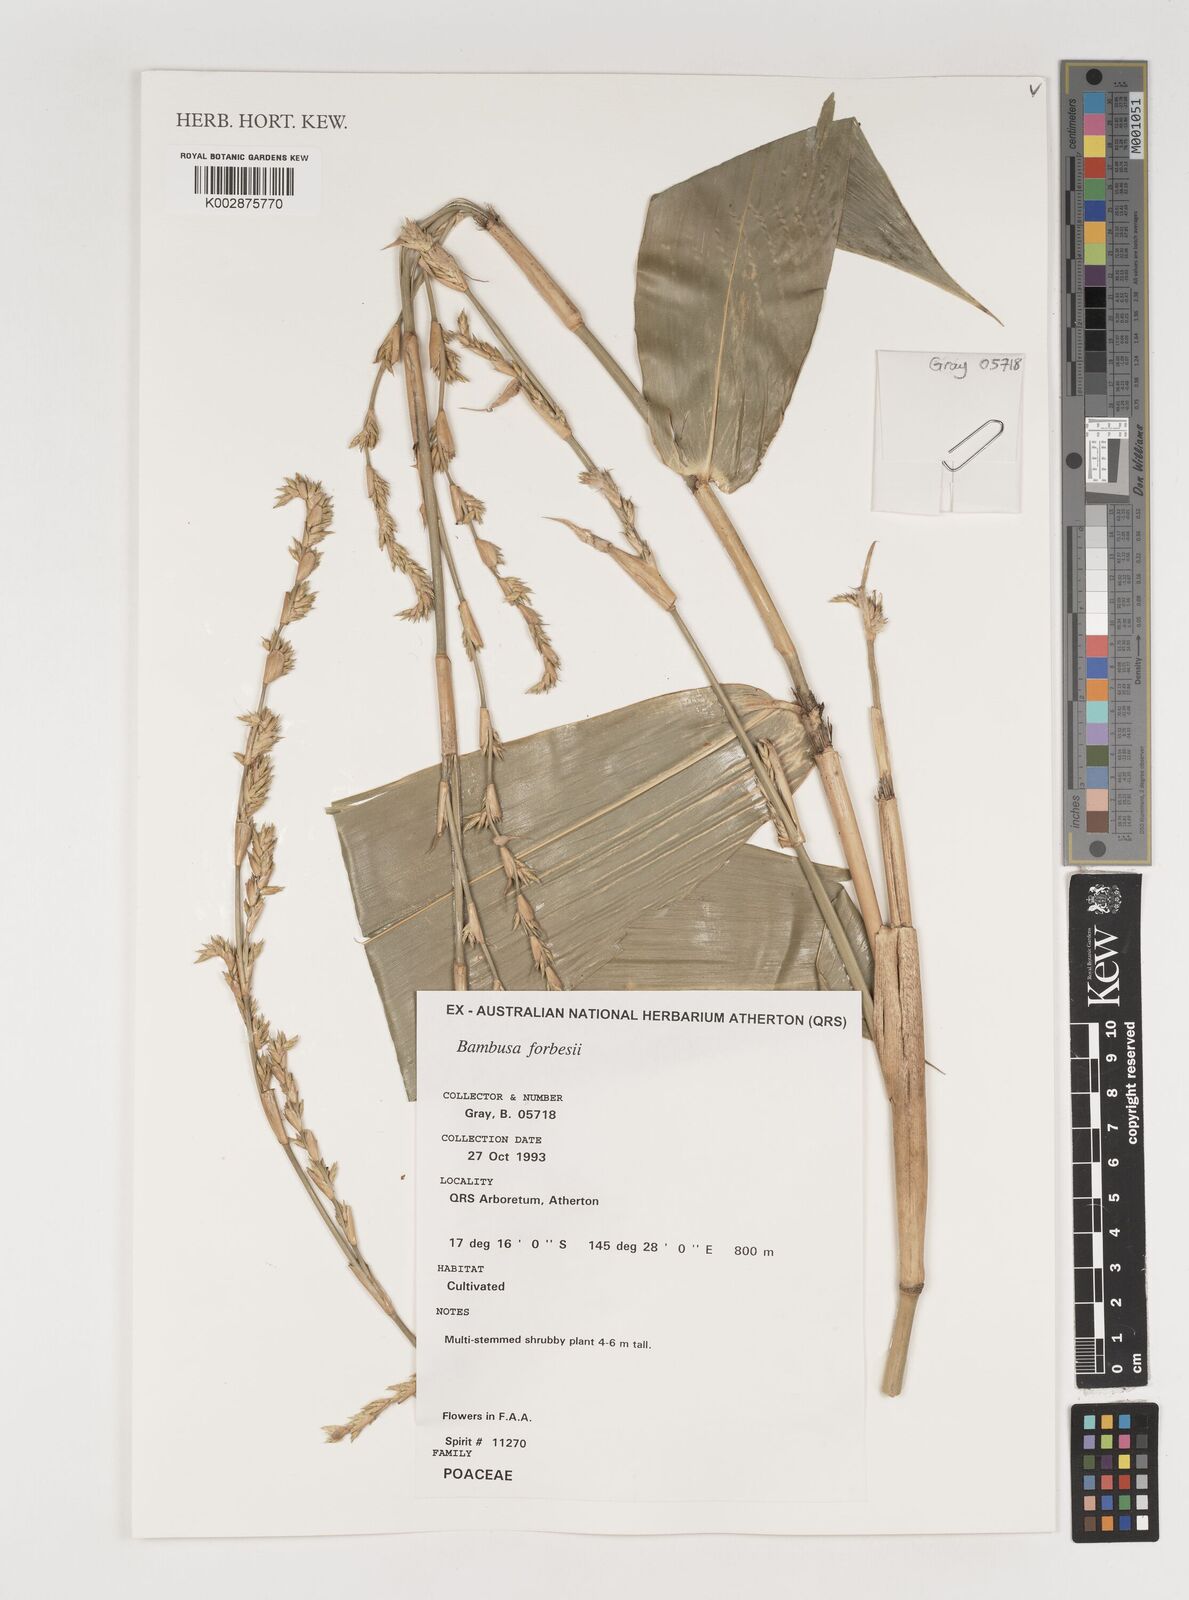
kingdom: Plantae
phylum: Tracheophyta
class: Liliopsida
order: Poales
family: Poaceae
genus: Neololeba
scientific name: Neololeba atra
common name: Cape bamboo
